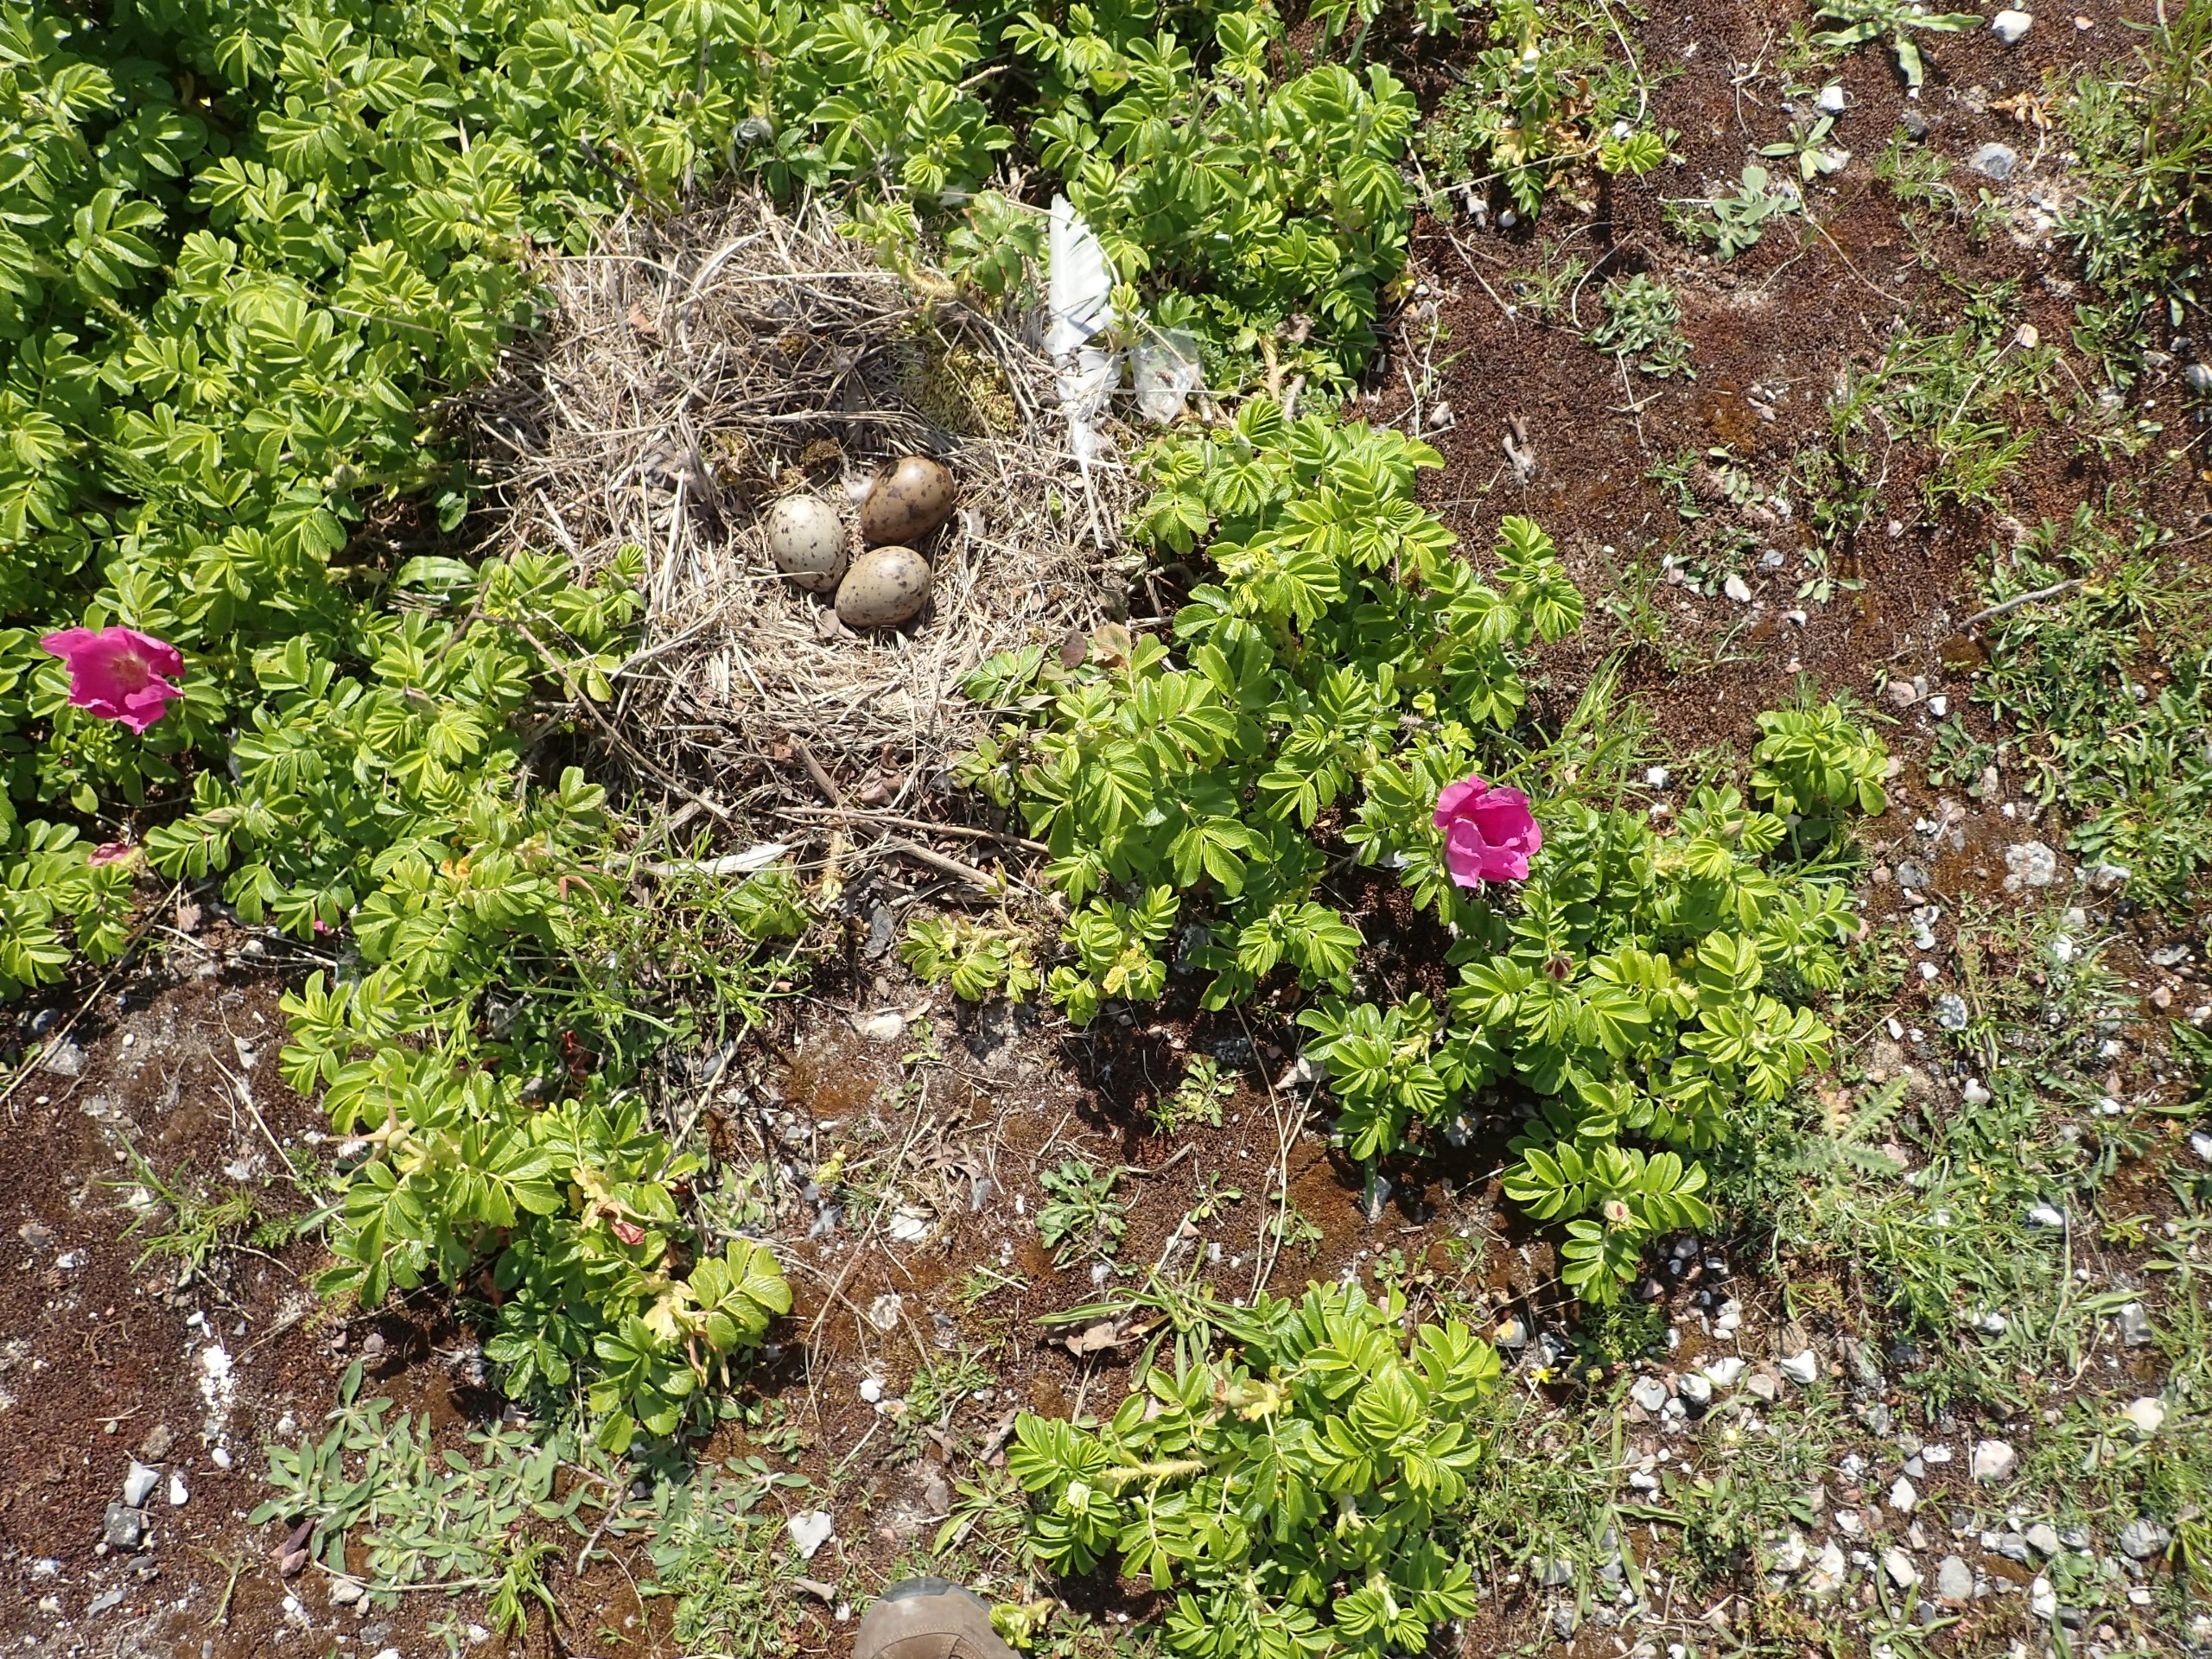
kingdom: Plantae
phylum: Tracheophyta
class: Magnoliopsida
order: Rosales
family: Rosaceae
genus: Rosa
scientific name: Rosa rugosa
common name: Rynket rose
